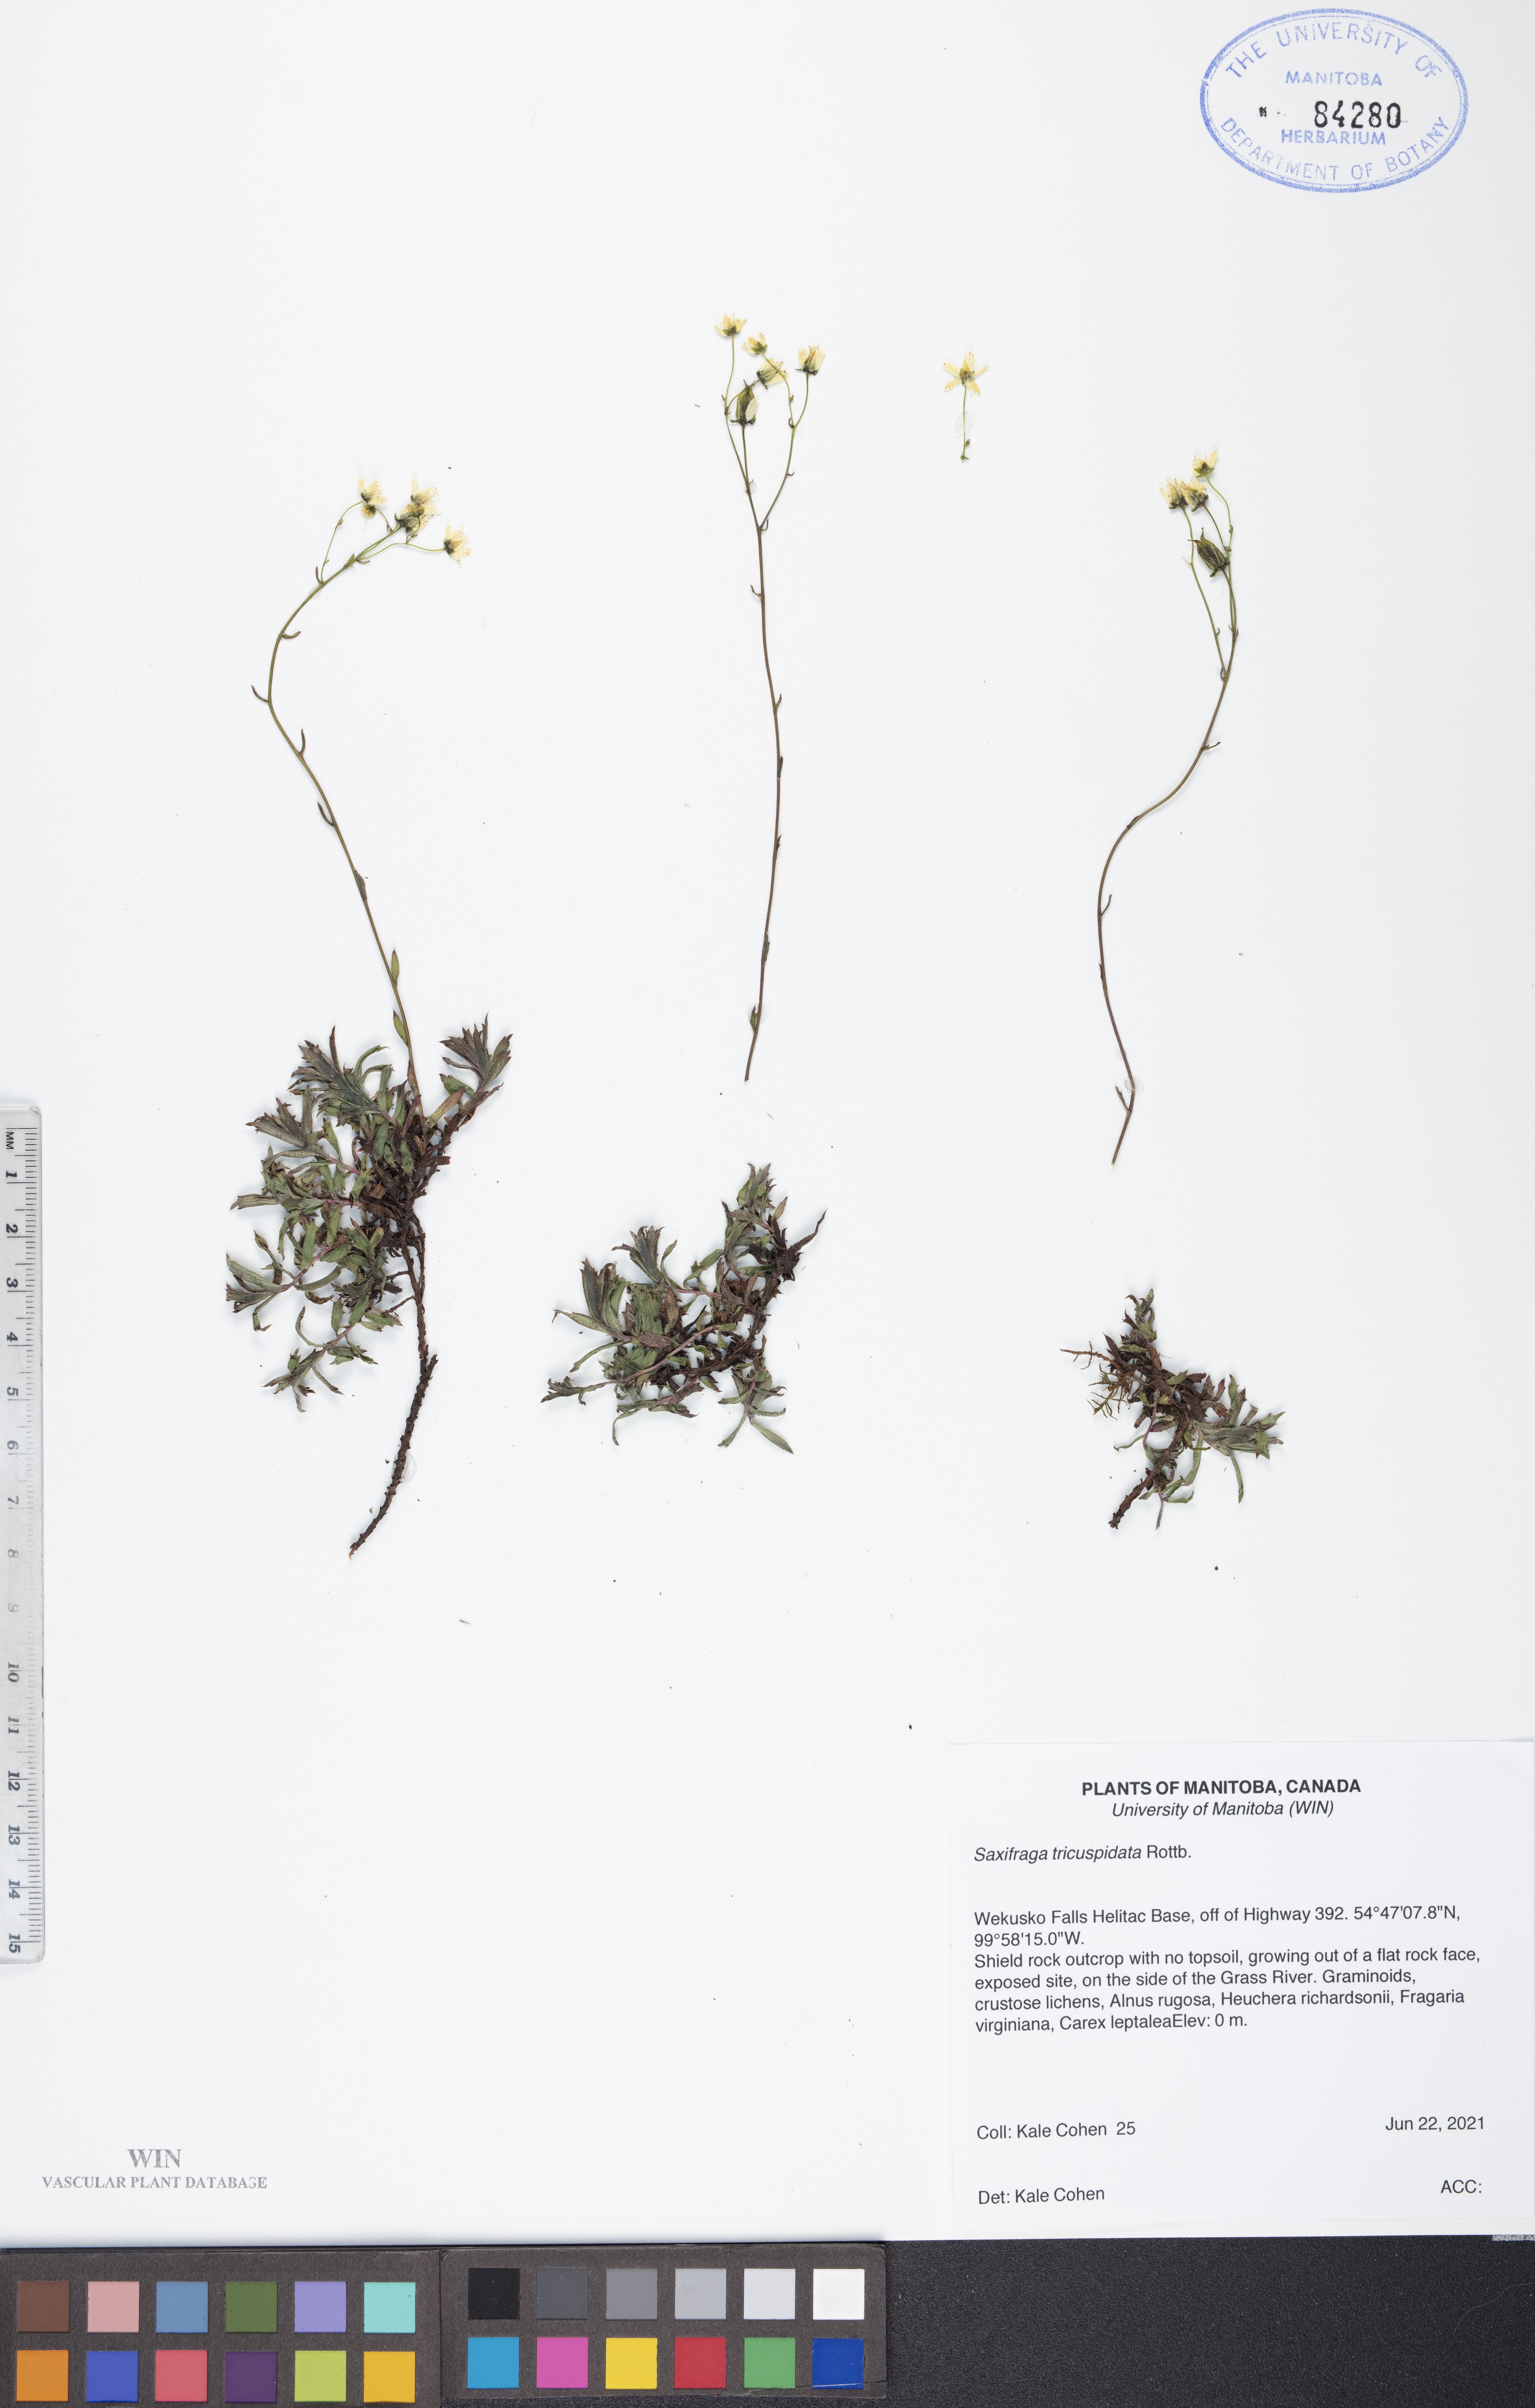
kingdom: Plantae
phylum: Tracheophyta
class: Magnoliopsida
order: Saxifragales
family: Saxifragaceae
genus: Saxifraga
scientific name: Saxifraga tricuspidata
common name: Prickly saxifrage
